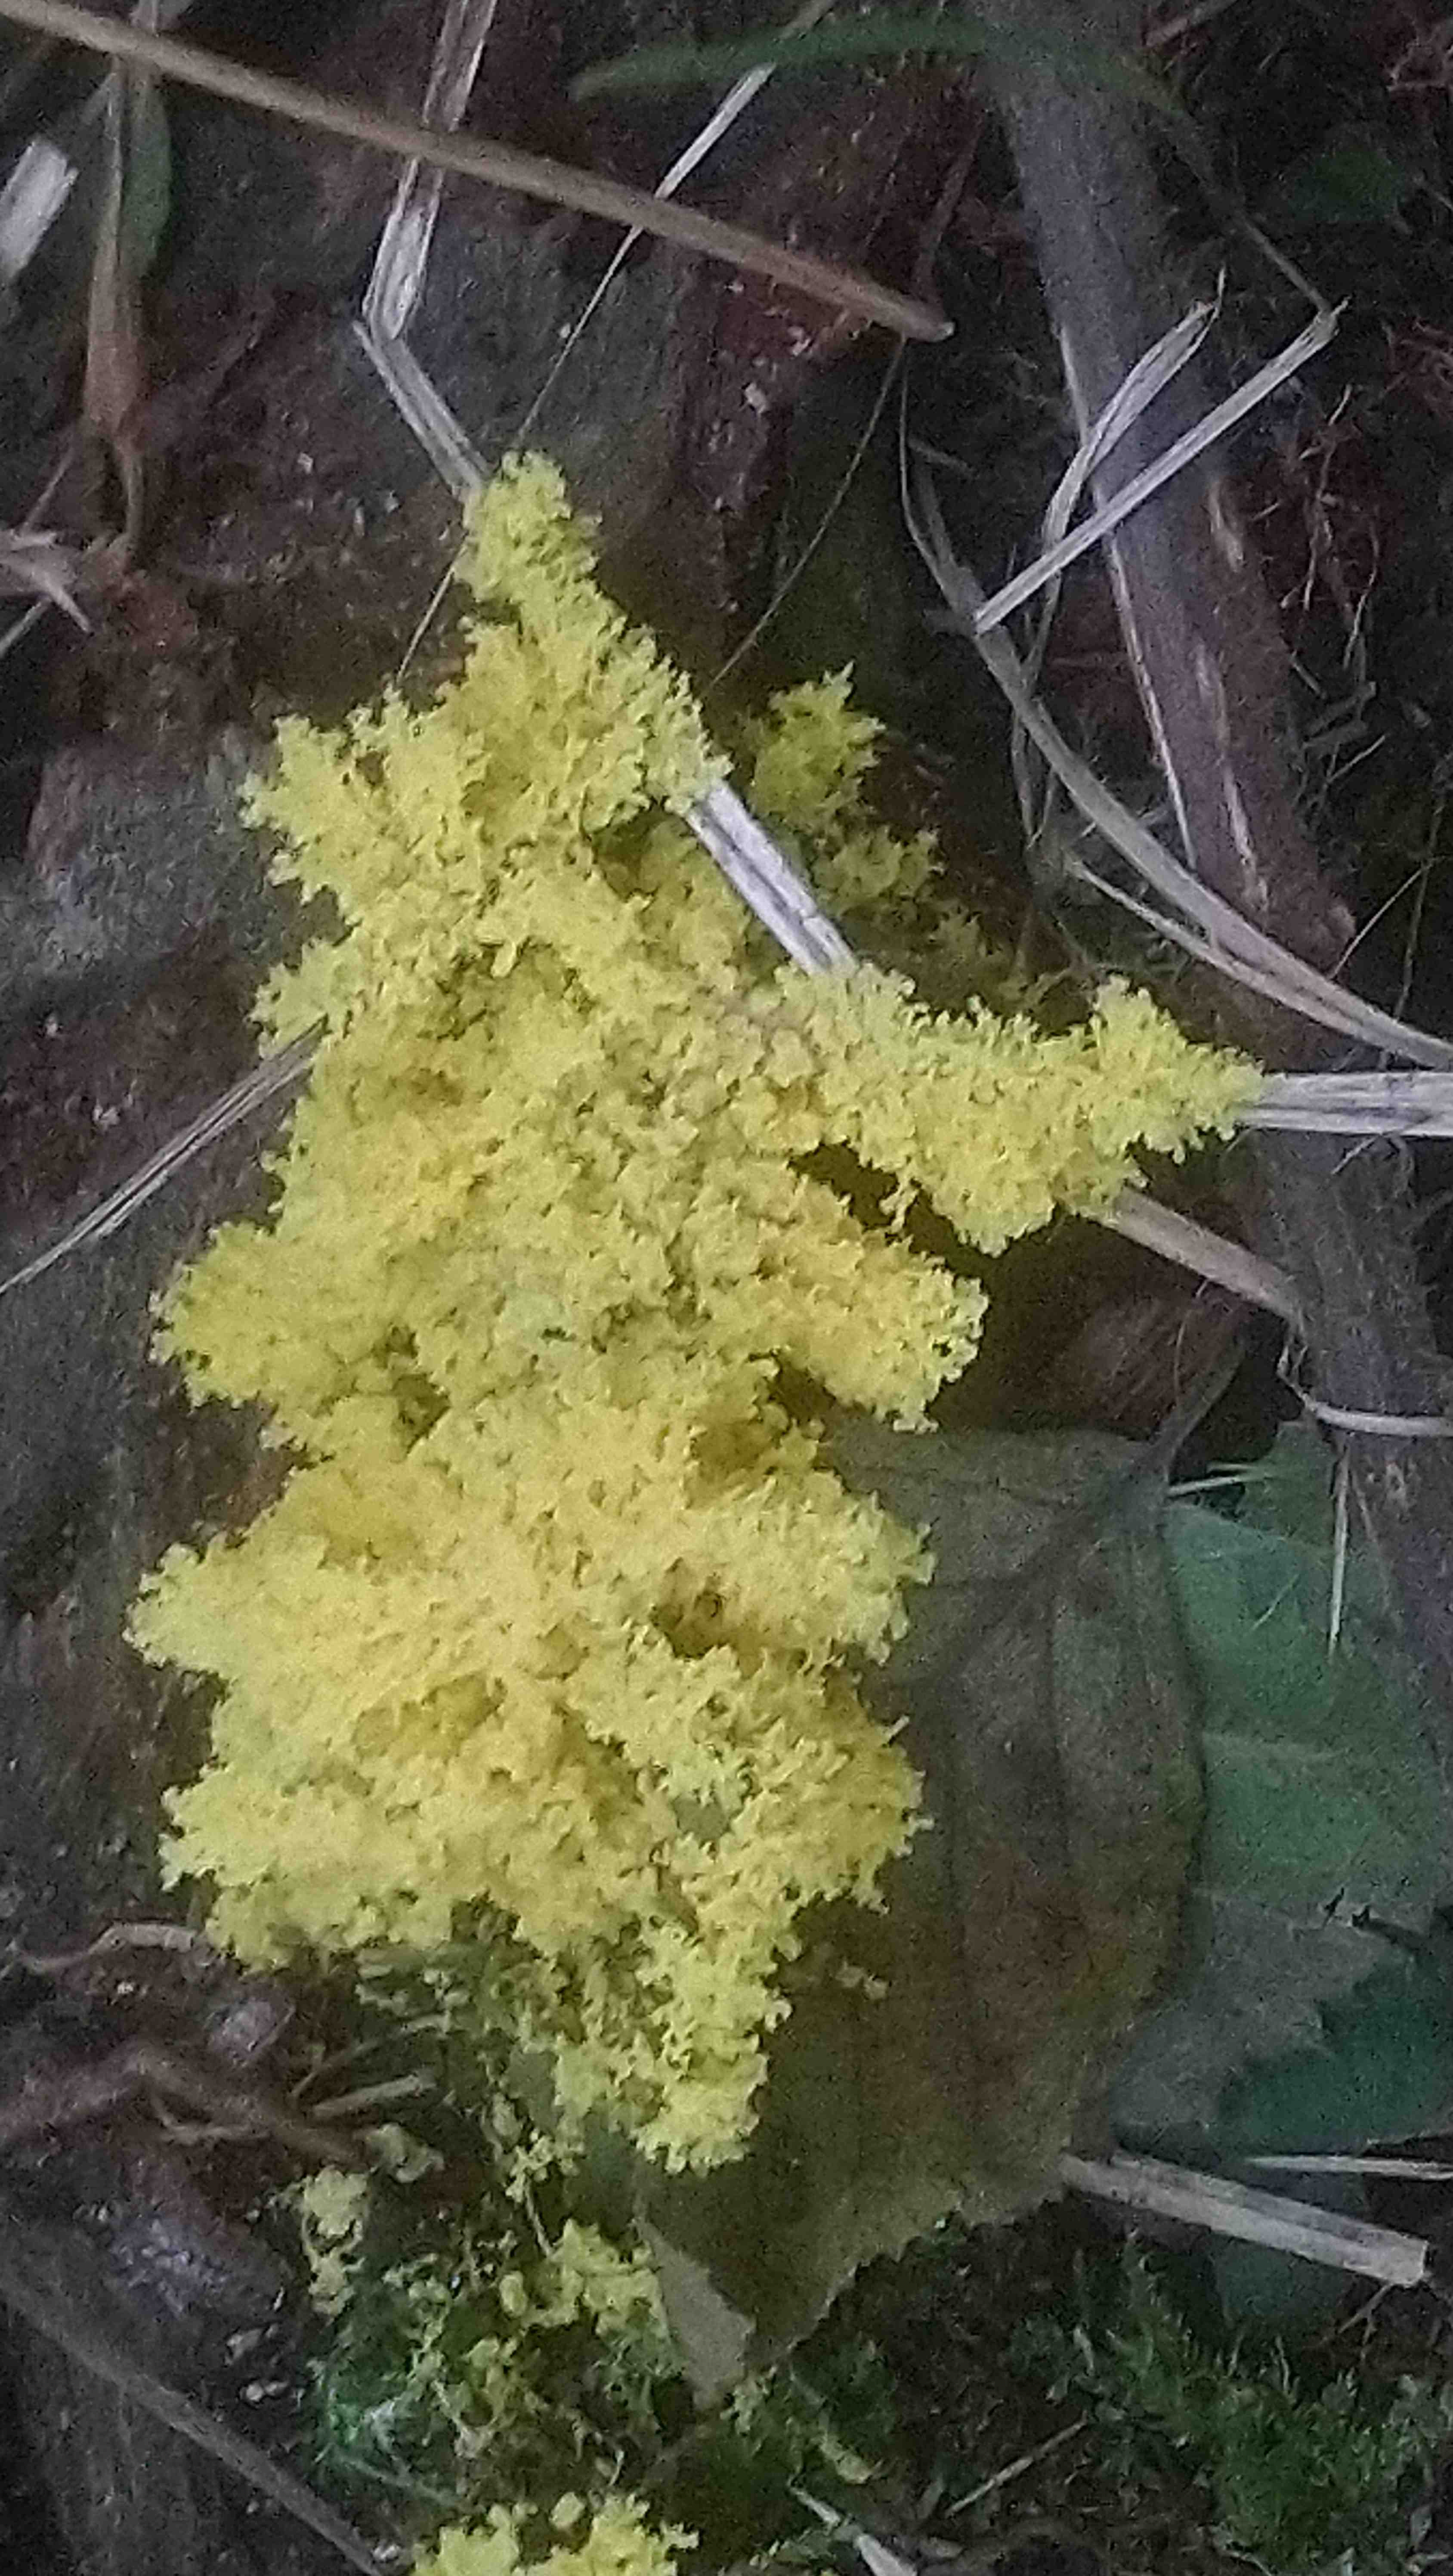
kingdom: Protozoa
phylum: Mycetozoa
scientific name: Mycetozoa
